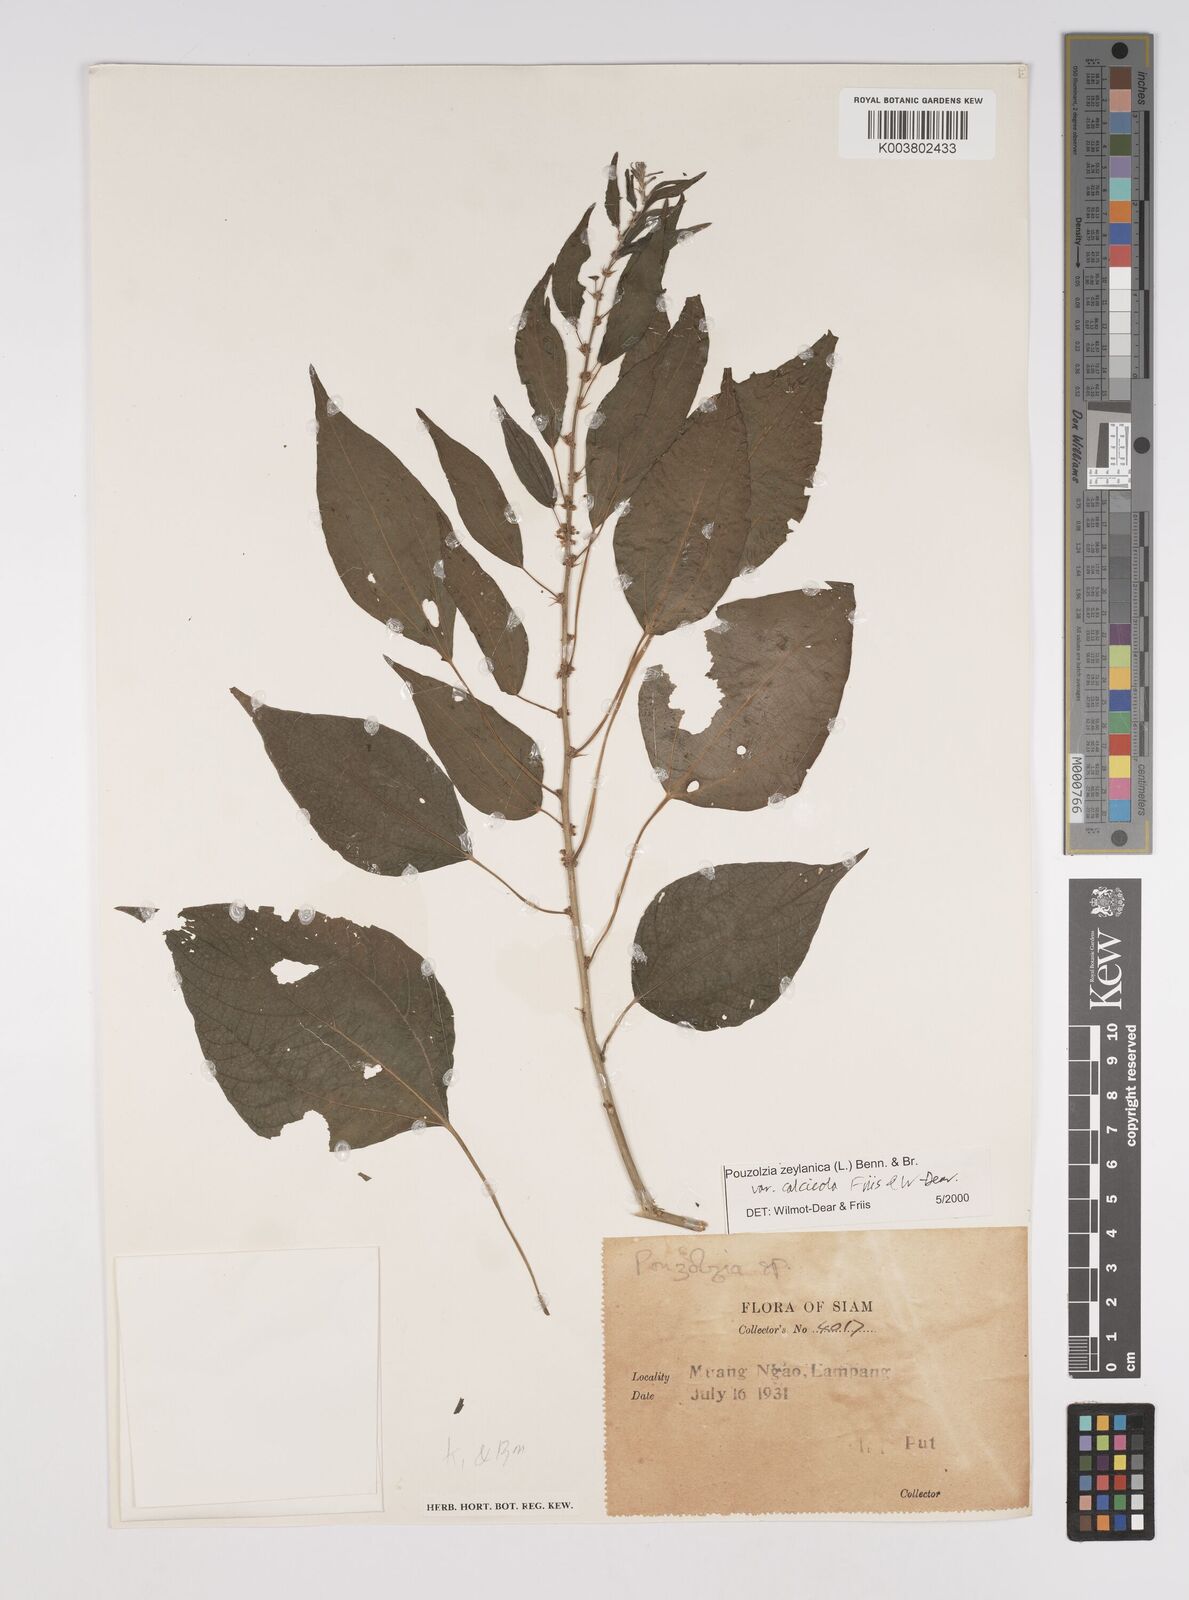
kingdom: Plantae
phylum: Tracheophyta
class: Magnoliopsida
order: Rosales
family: Urticaceae
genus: Pouzolzia
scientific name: Pouzolzia zeylanica
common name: Graceful pouzolzsbush
